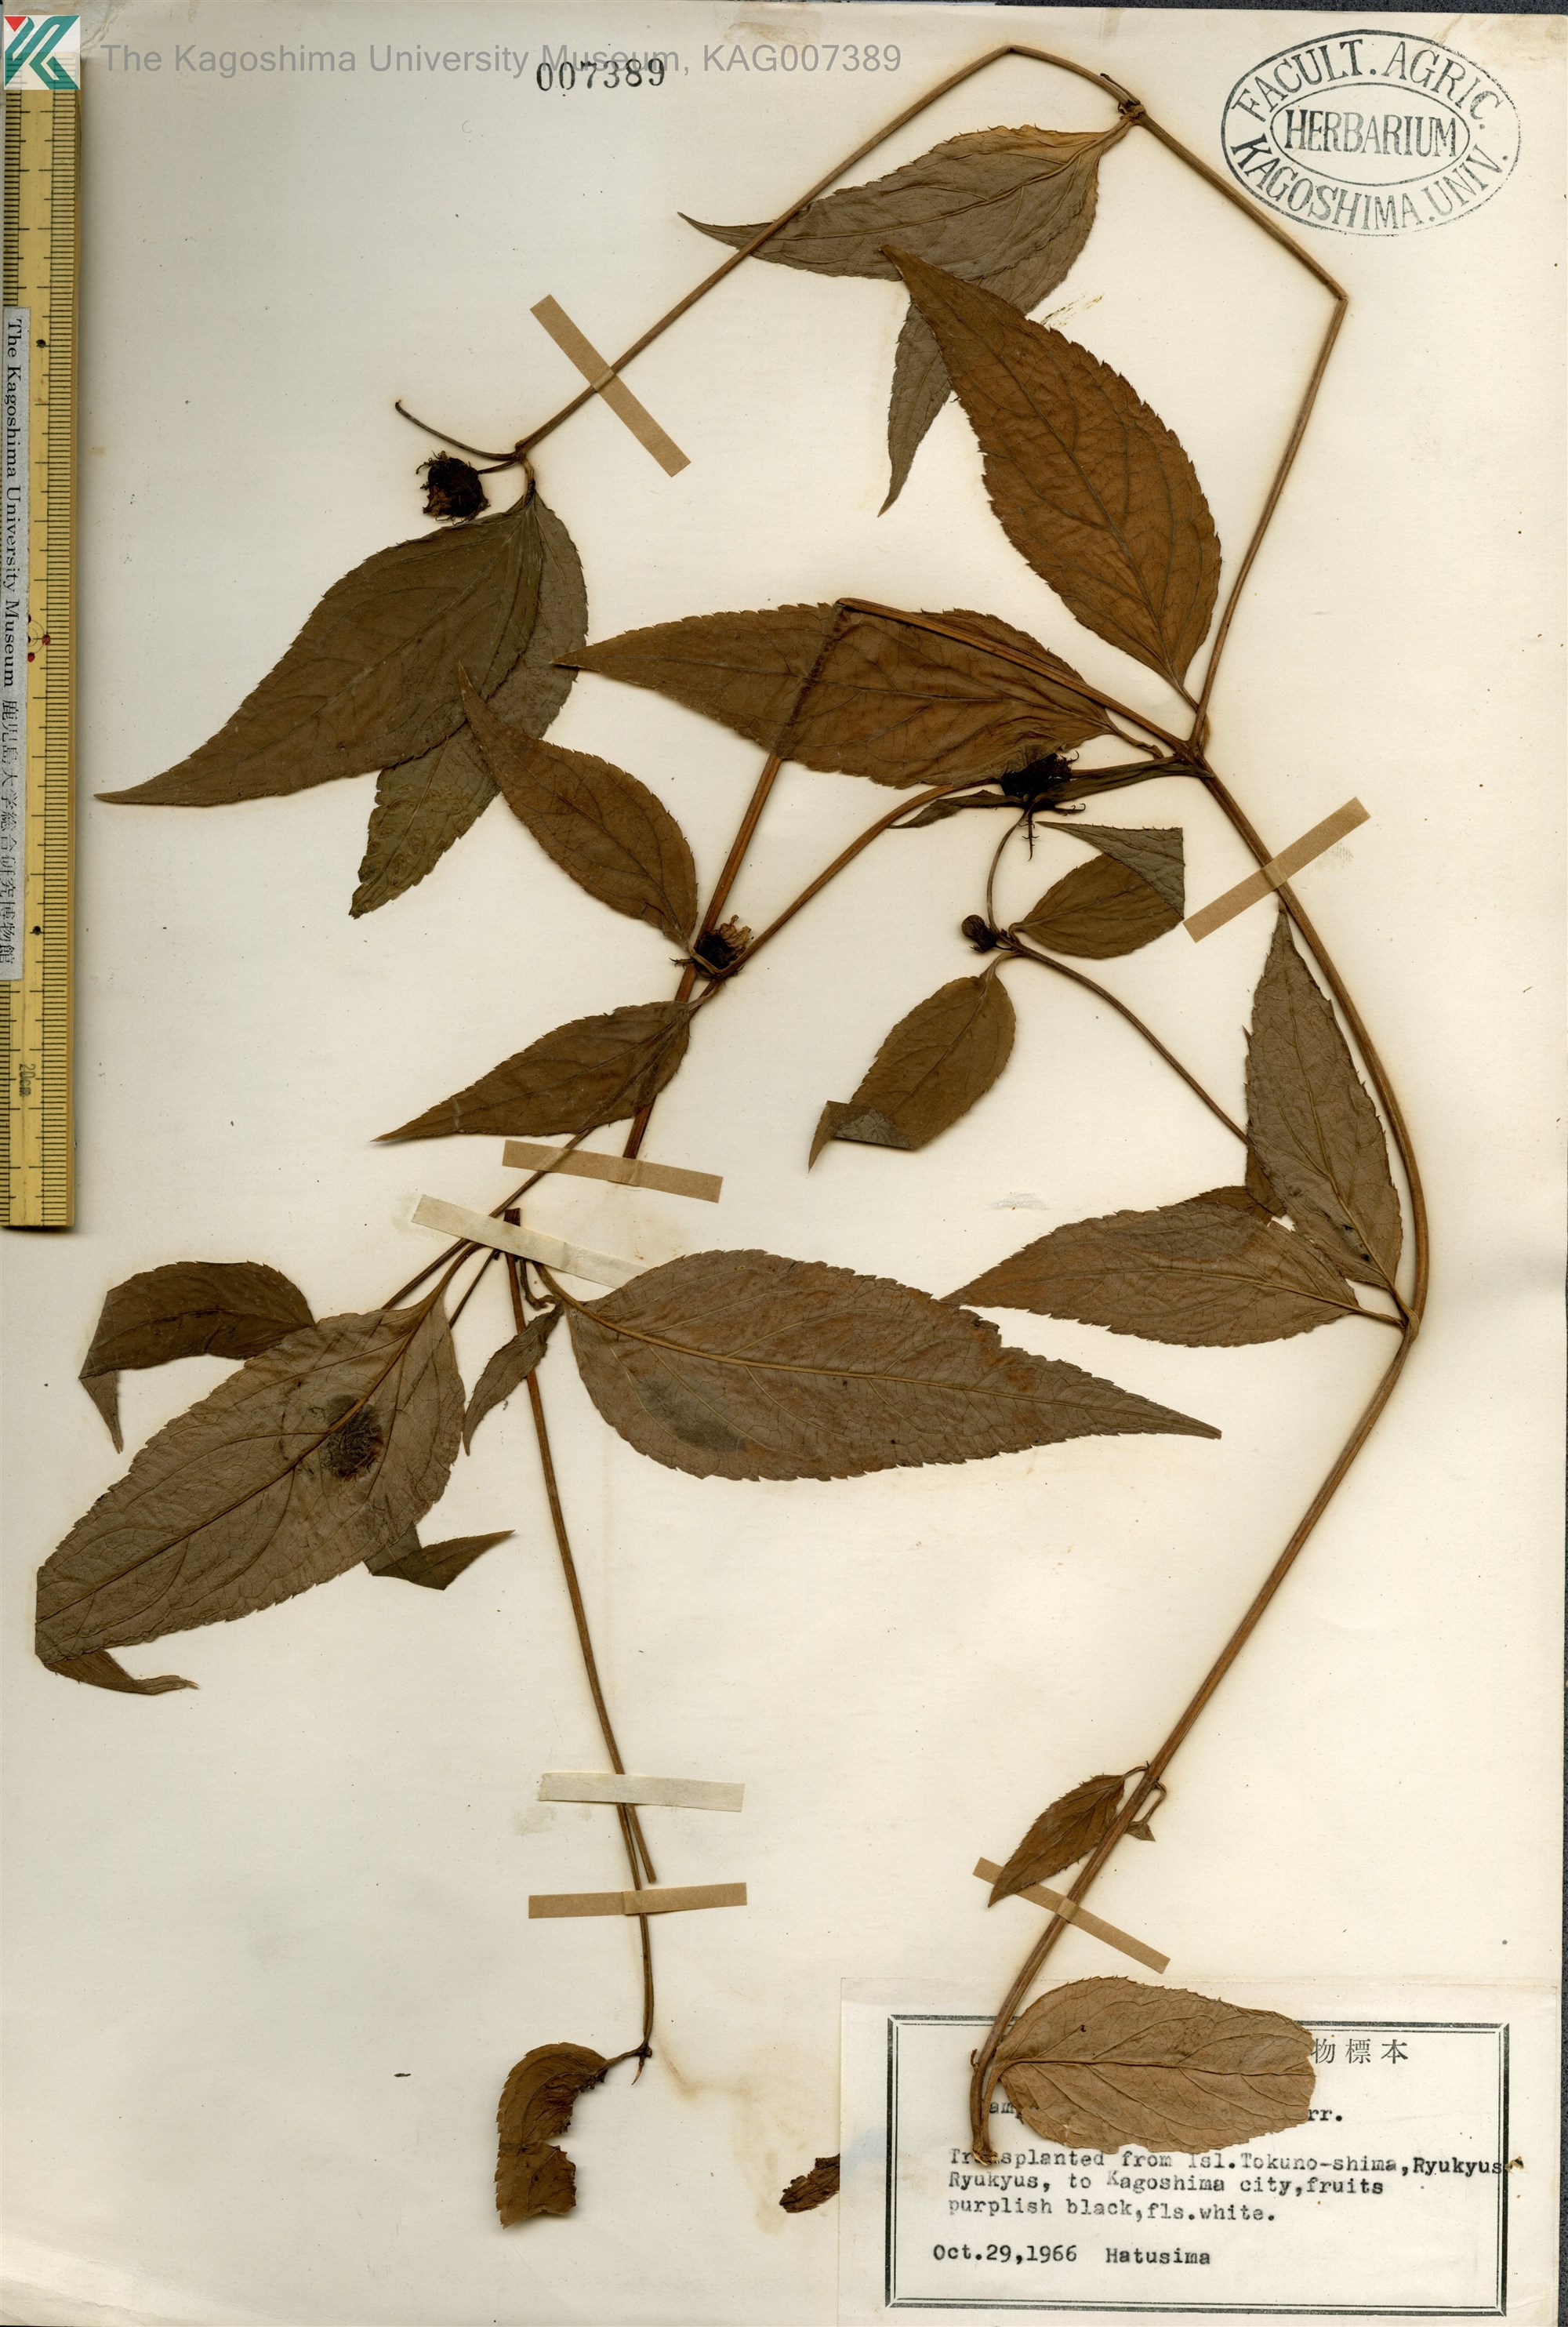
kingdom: Plantae
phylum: Tracheophyta
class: Magnoliopsida
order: Asterales
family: Campanulaceae
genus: Cyclocodon
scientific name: Cyclocodon lancifolius
